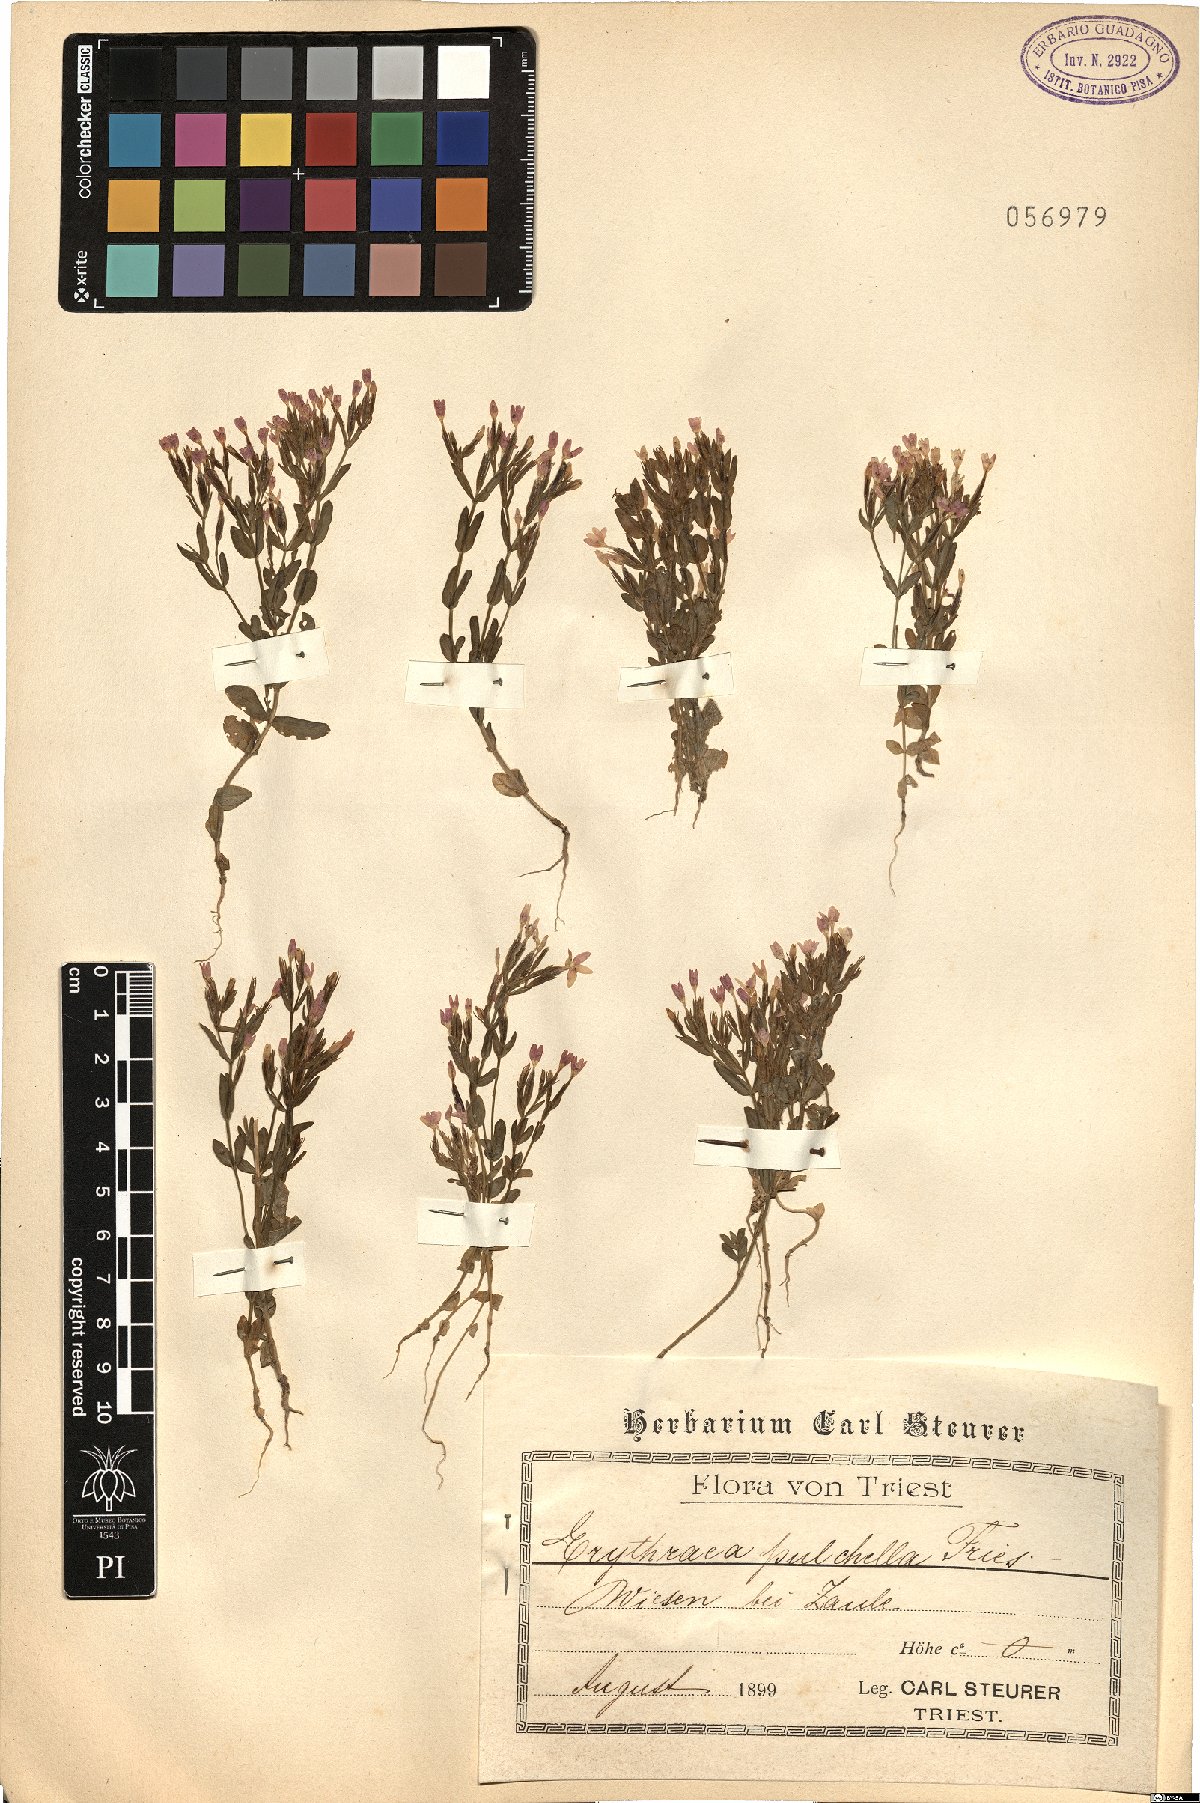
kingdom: Plantae
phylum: Tracheophyta
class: Magnoliopsida
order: Gentianales
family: Gentianaceae
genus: Centaurium
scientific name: Centaurium pulchellum
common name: Lesser centaury
